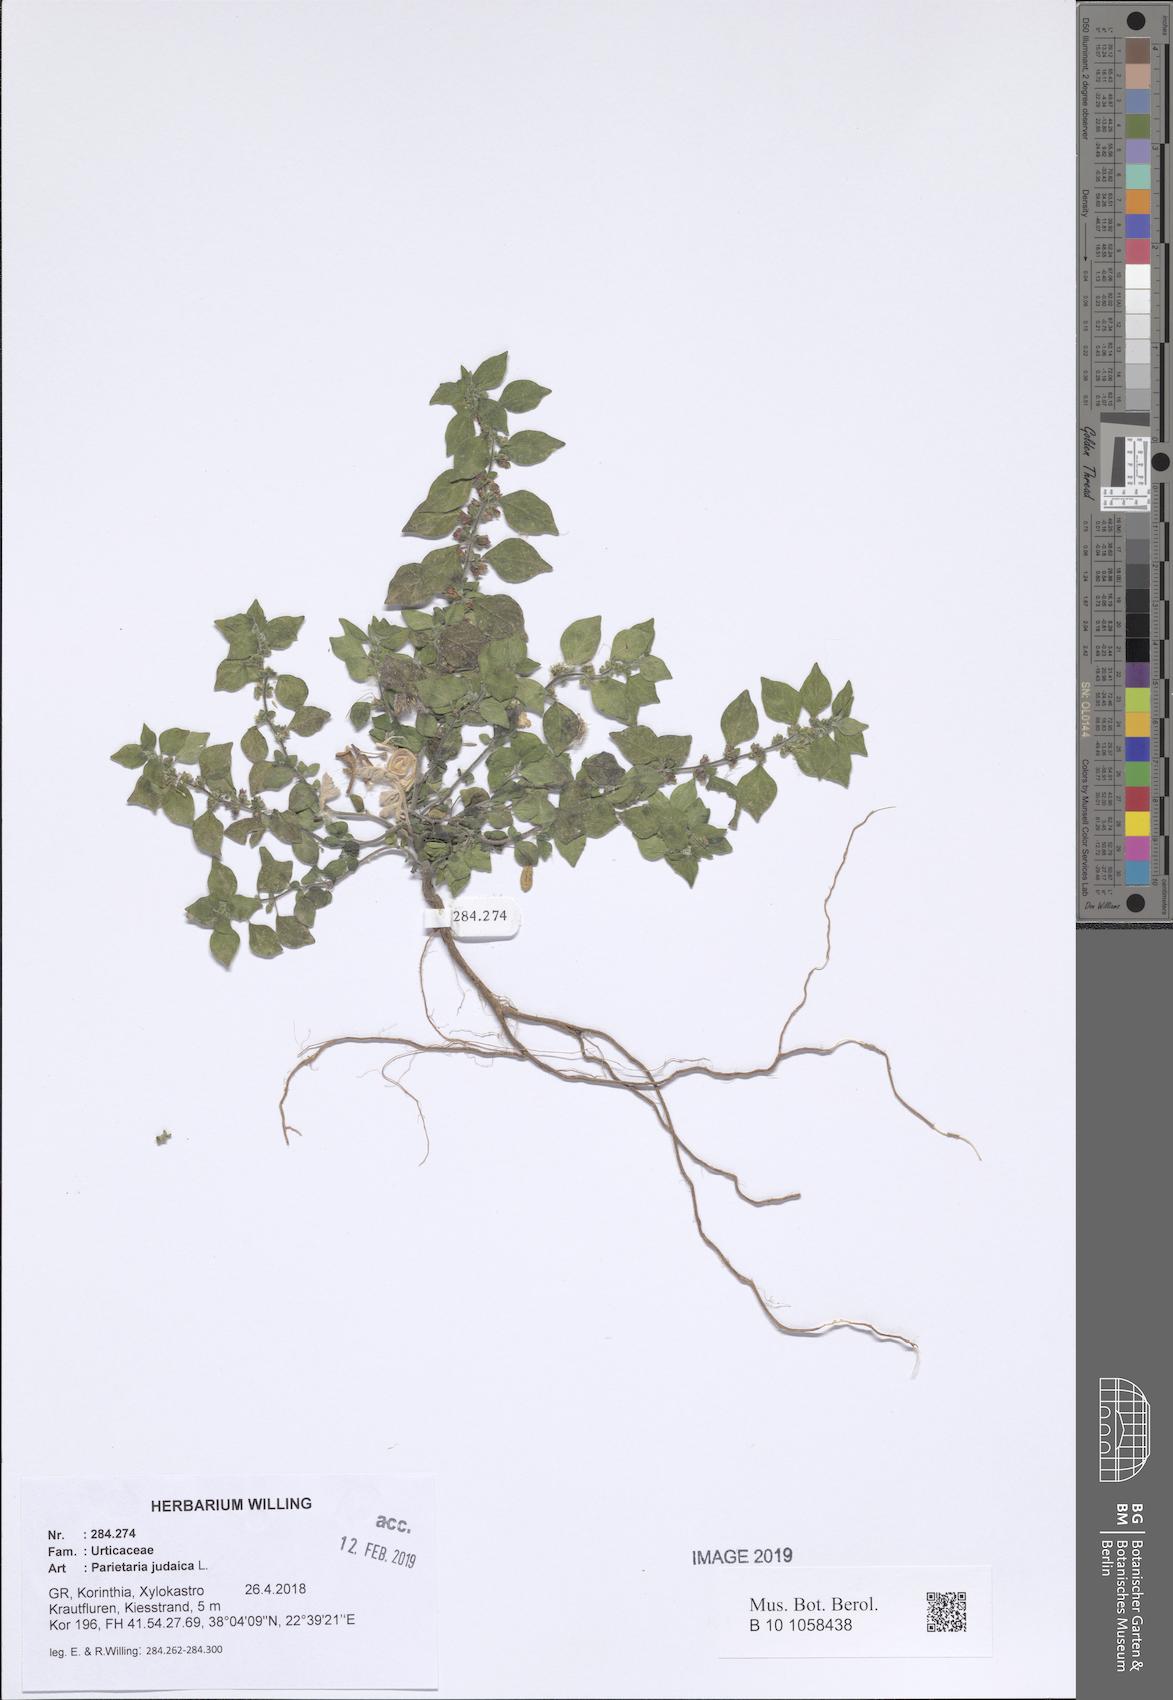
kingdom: Plantae
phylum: Tracheophyta
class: Magnoliopsida
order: Rosales
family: Urticaceae
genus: Parietaria
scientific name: Parietaria judaica
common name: Pellitory-of-the-wall
